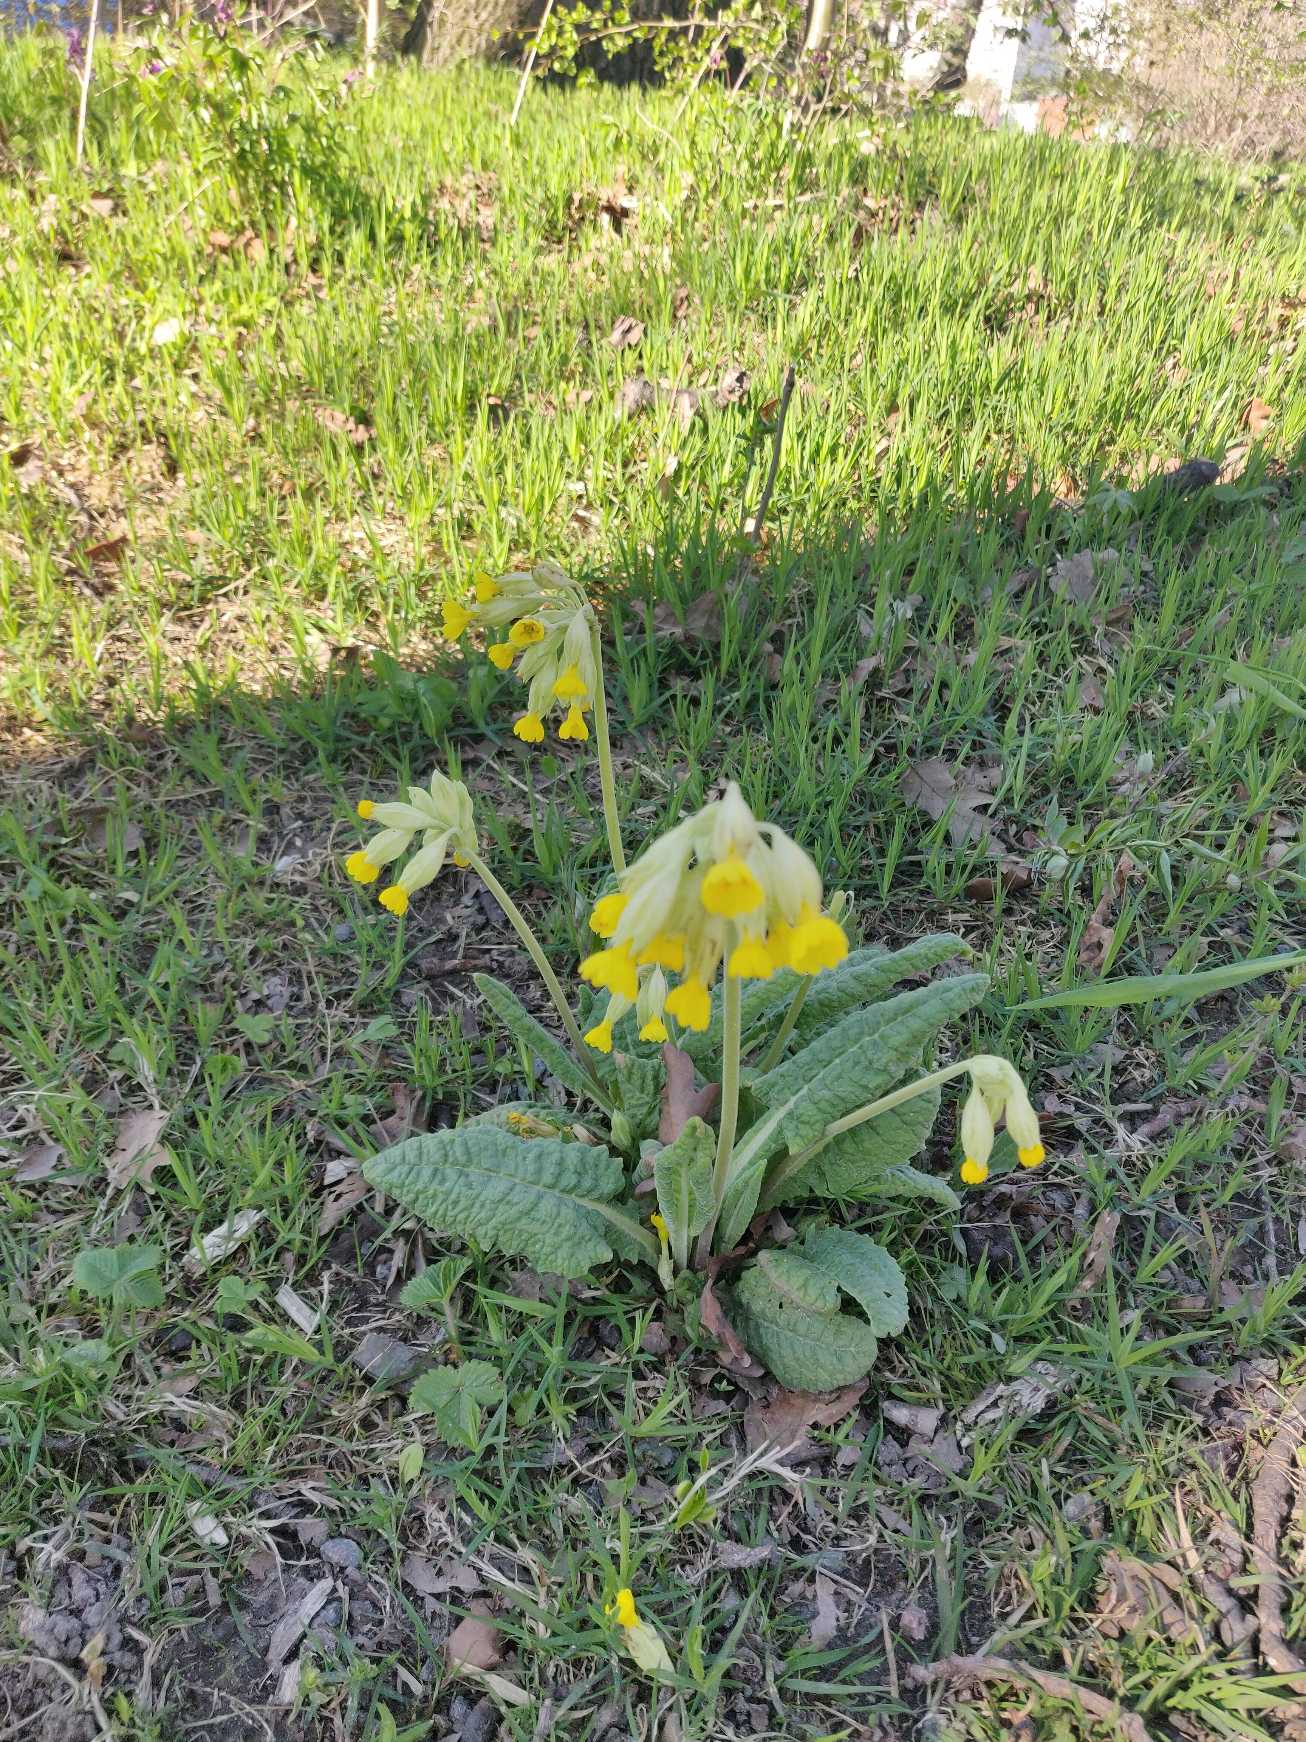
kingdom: Plantae
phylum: Tracheophyta
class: Magnoliopsida
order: Ericales
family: Primulaceae
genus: Primula
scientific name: Primula veris
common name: Hulkravet kodriver
